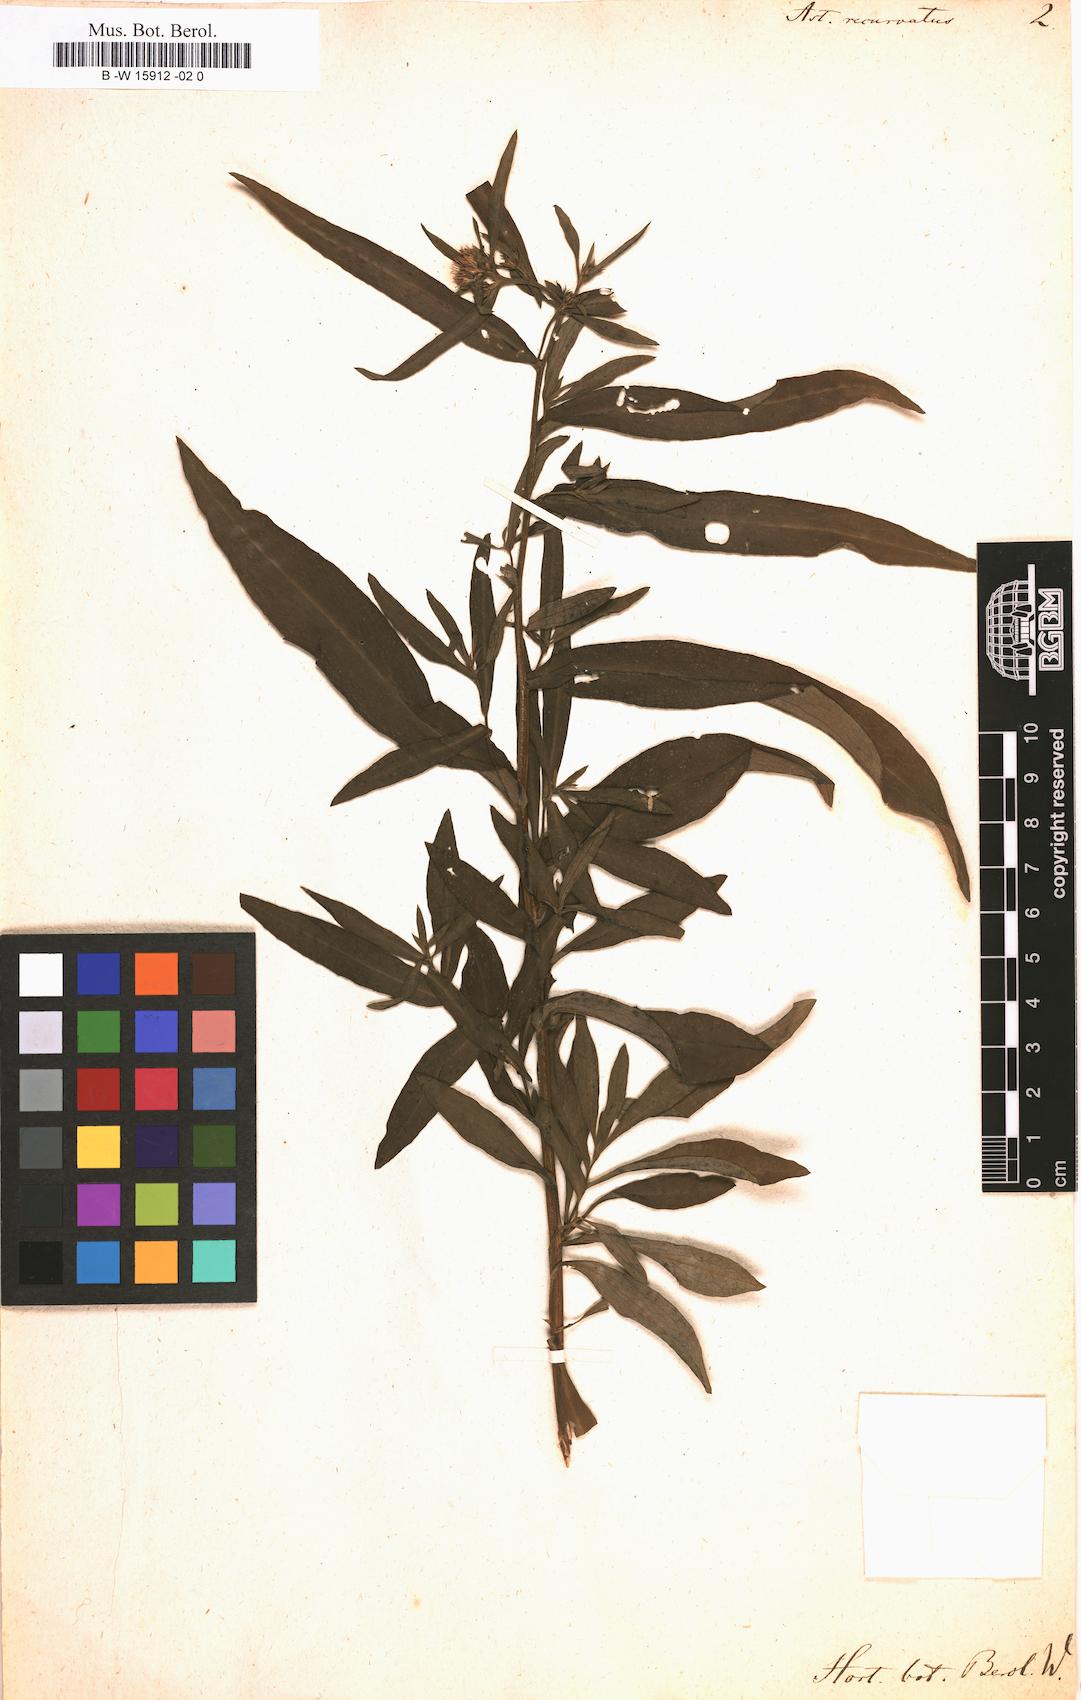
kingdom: Plantae
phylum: Tracheophyta
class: Magnoliopsida
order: Asterales
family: Asteraceae
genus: Symphyotrichum
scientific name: Symphyotrichum novi-belgii
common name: Michaelmas daisy
